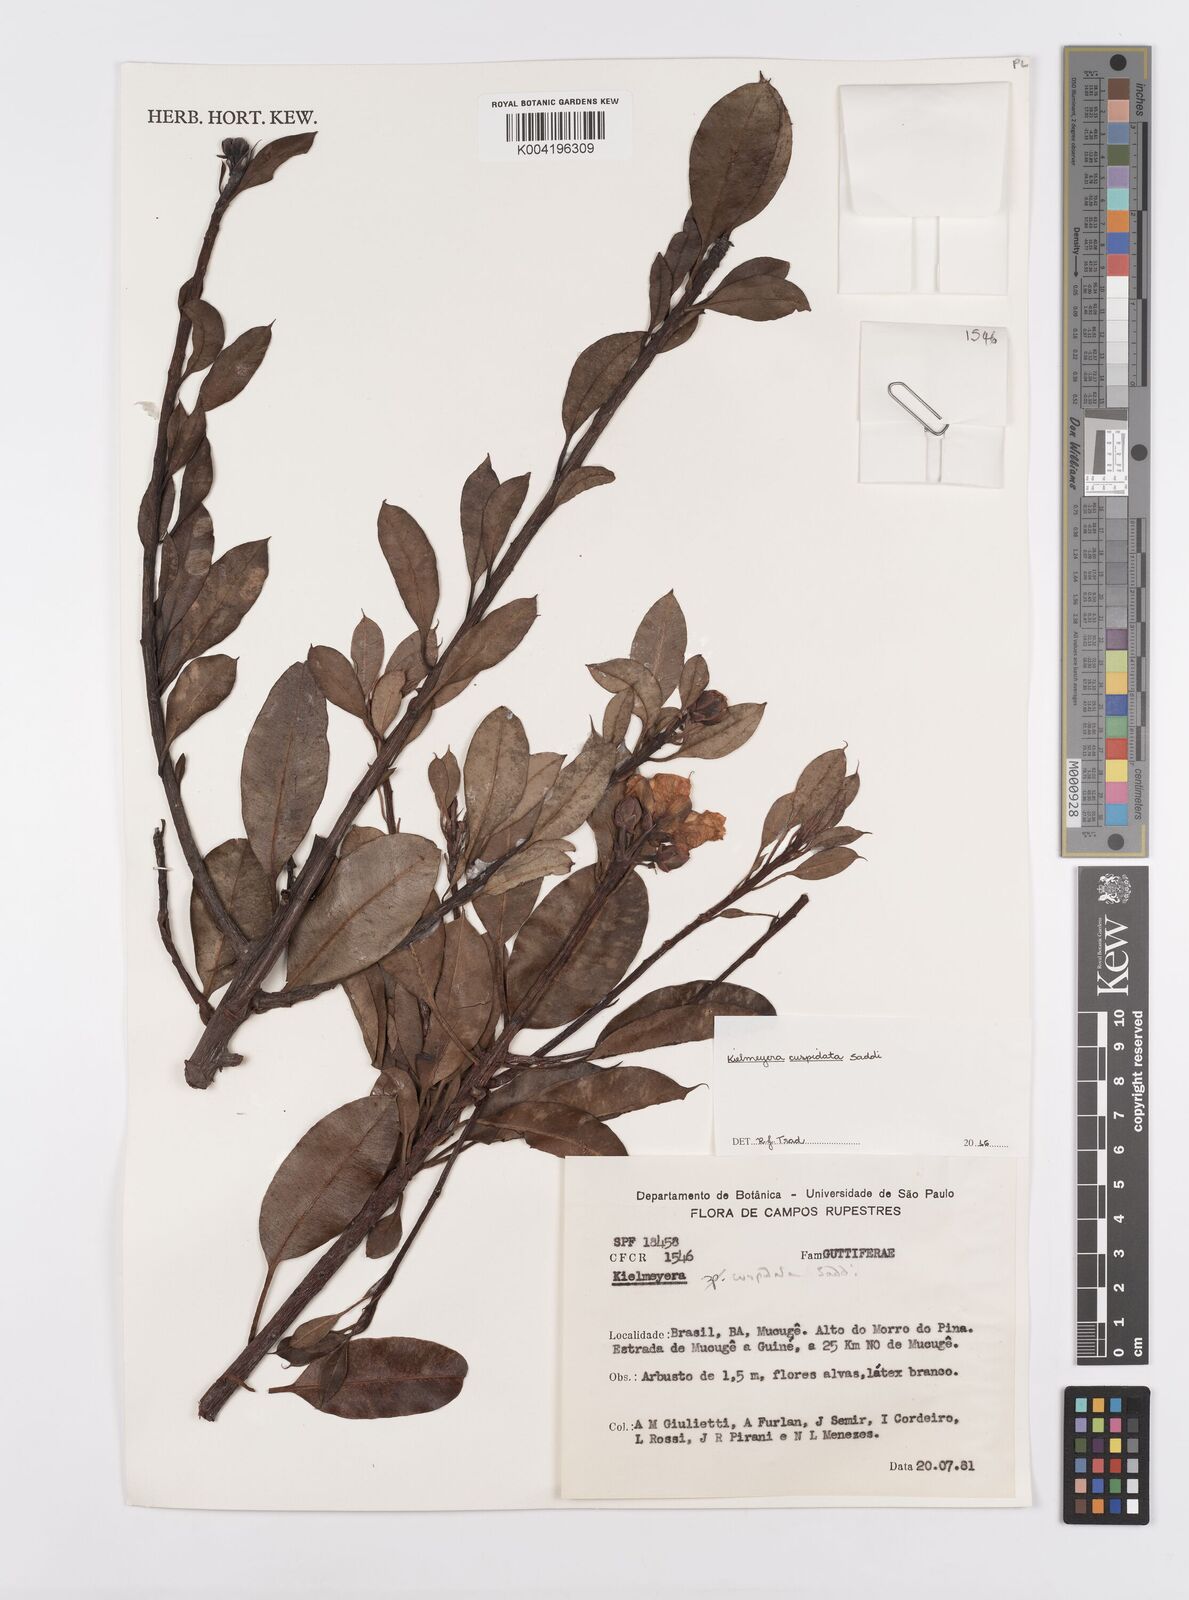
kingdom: Plantae
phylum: Tracheophyta
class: Magnoliopsida
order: Malpighiales
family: Calophyllaceae
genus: Kielmeyera
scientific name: Kielmeyera cuspidata
